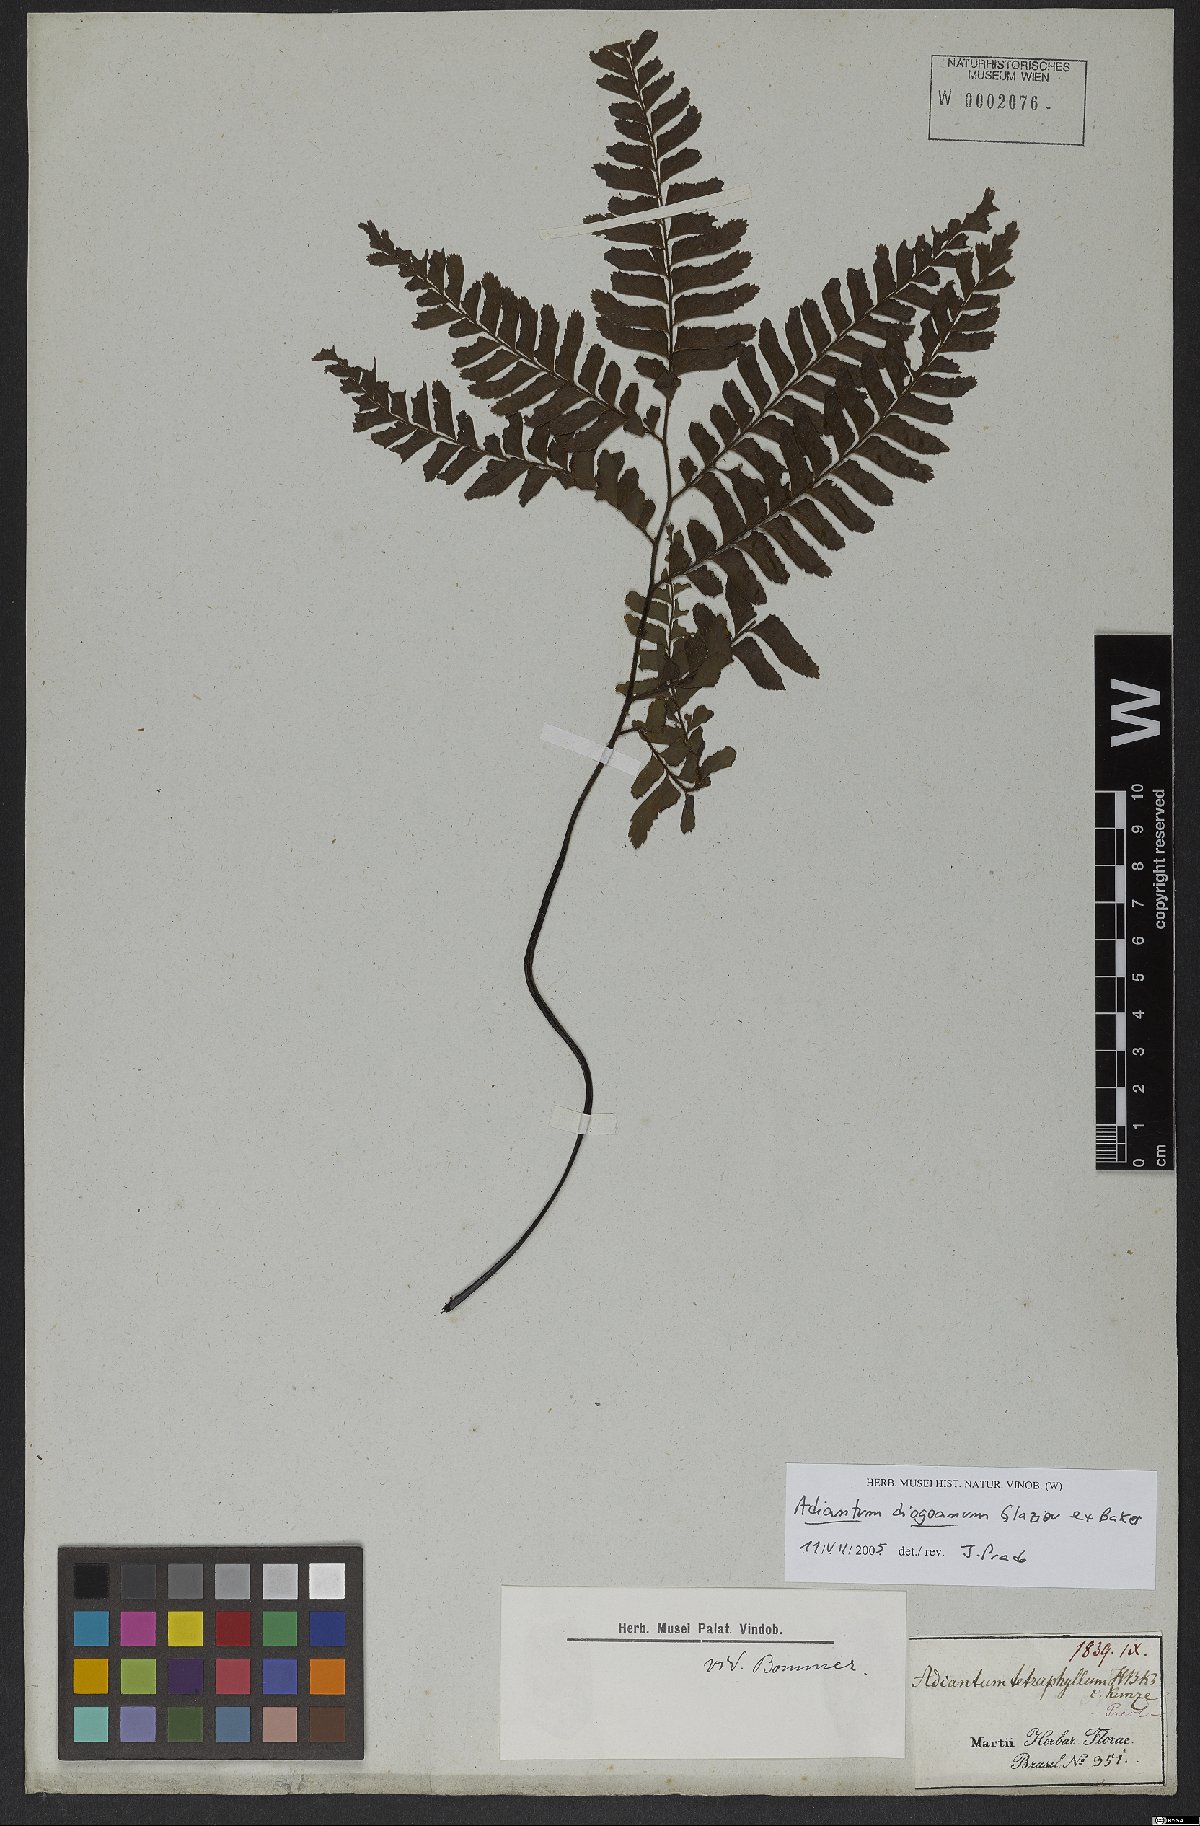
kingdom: Plantae
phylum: Tracheophyta
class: Polypodiopsida
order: Polypodiales
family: Pteridaceae
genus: Adiantum
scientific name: Adiantum diogoanum
